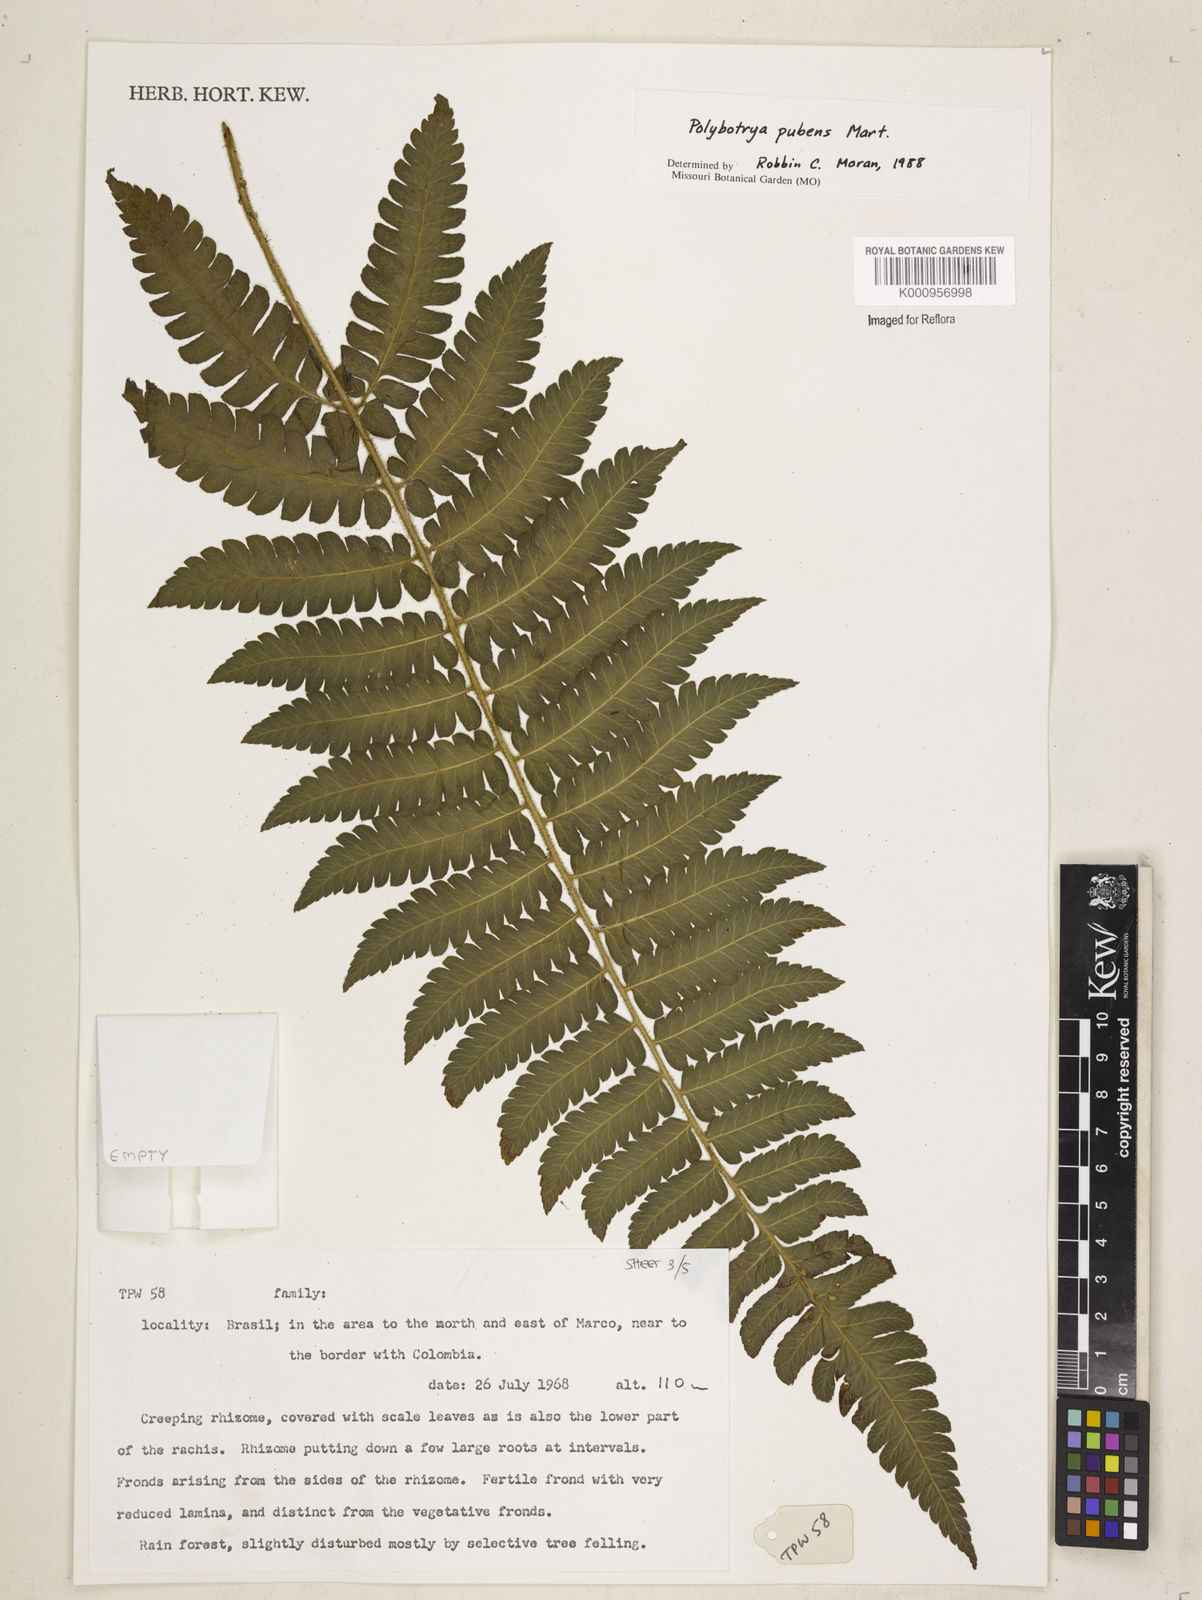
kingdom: Plantae
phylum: Tracheophyta
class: Polypodiopsida
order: Polypodiales
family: Dryopteridaceae
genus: Polybotrya
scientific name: Polybotrya pubens
